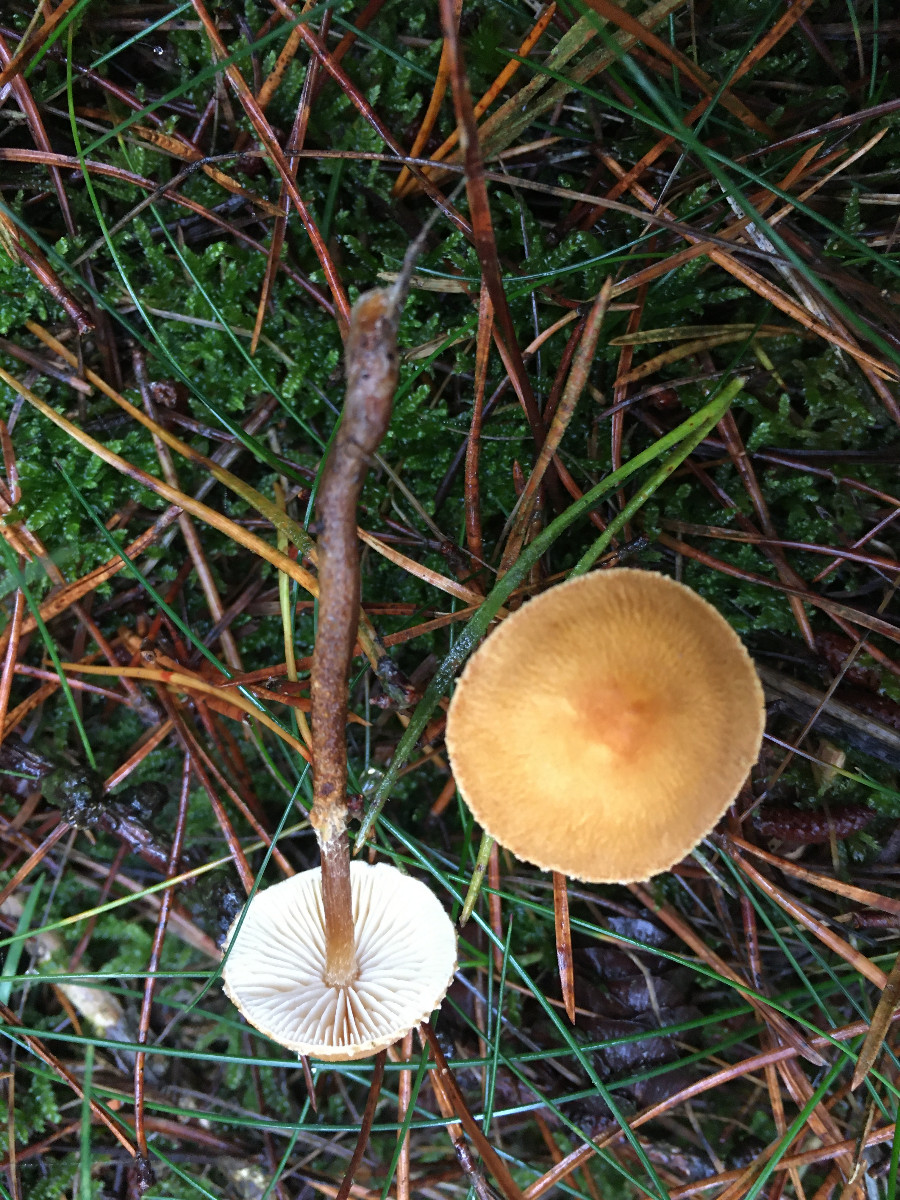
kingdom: Fungi
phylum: Basidiomycota
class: Agaricomycetes
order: Agaricales
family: Tricholomataceae
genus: Cystoderma
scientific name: Cystoderma
